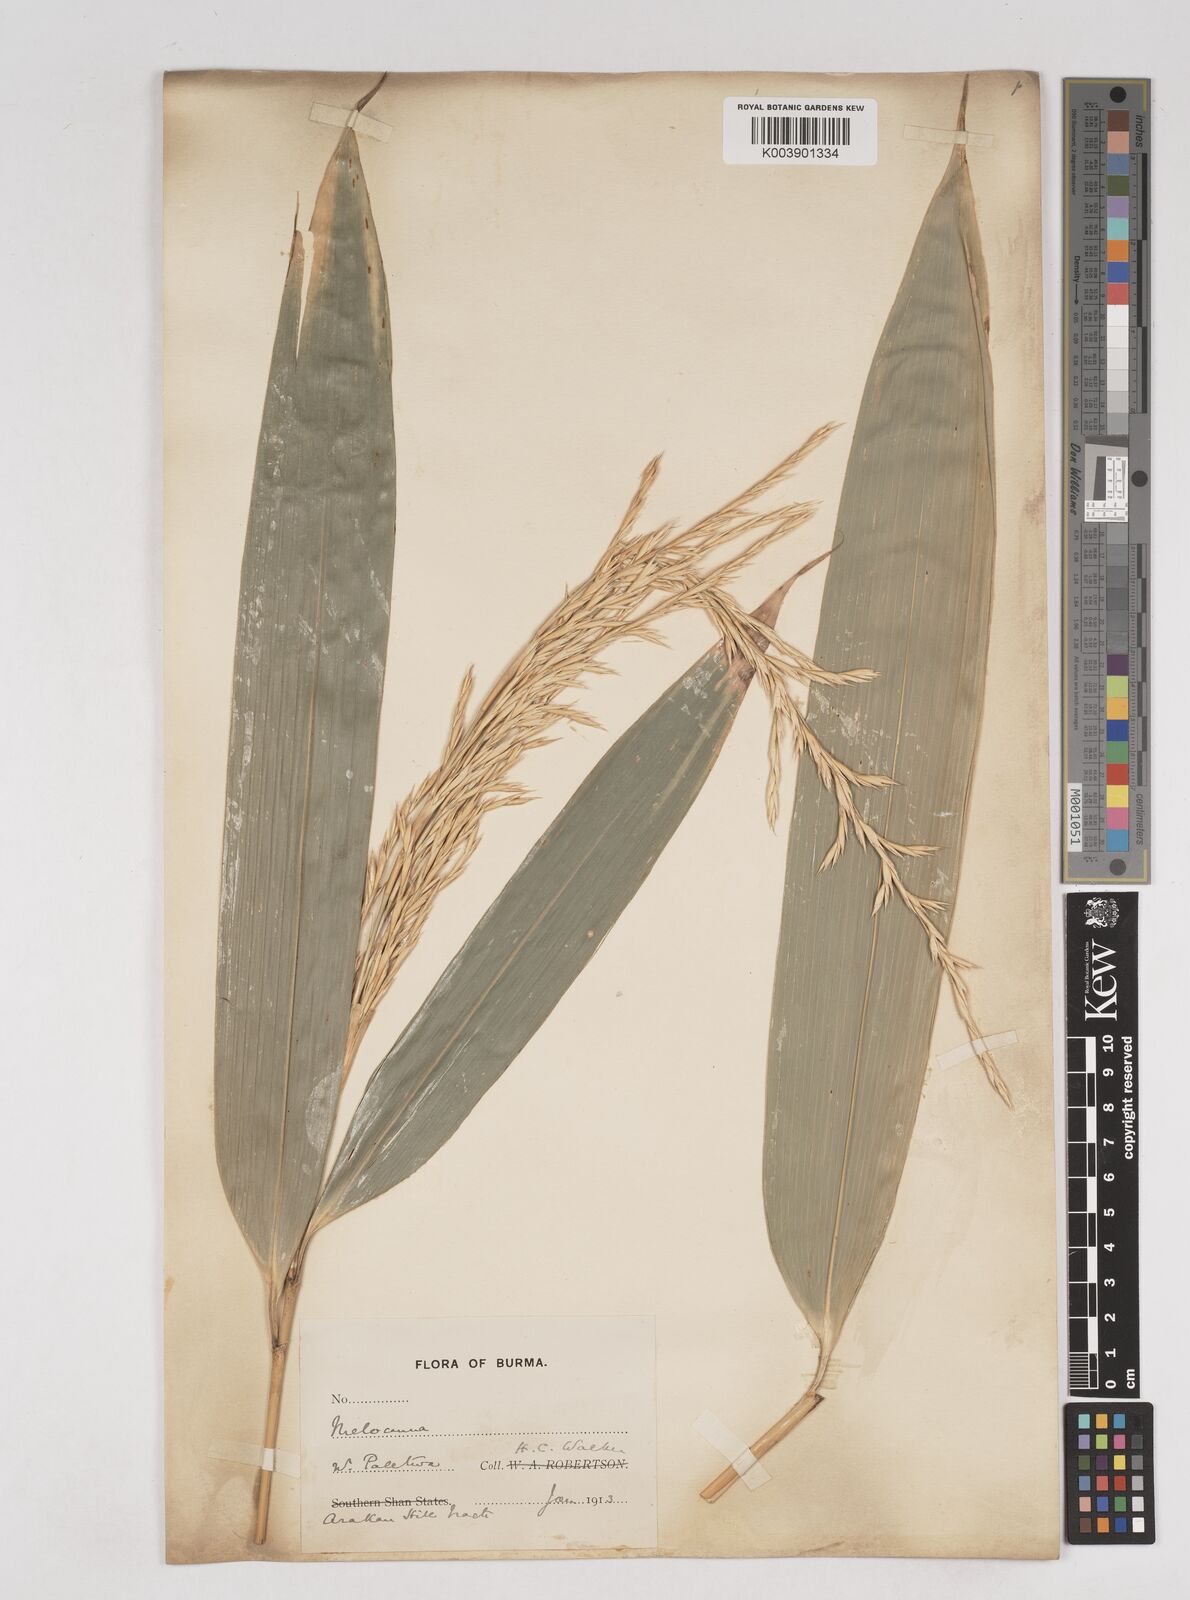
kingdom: Plantae
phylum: Tracheophyta
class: Liliopsida
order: Poales
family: Poaceae
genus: Melocanna
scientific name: Melocanna
